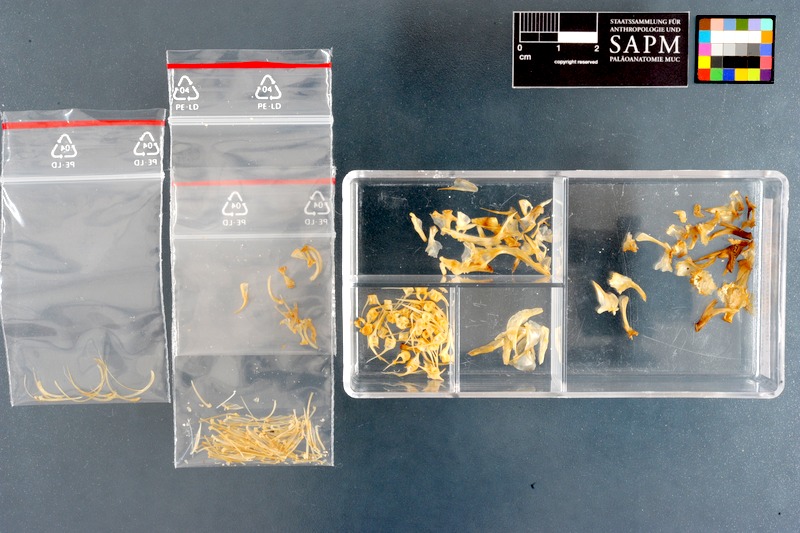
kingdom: Animalia
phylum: Chordata
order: Perciformes
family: Labrisomidae
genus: Labrisomus
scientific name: Labrisomus nuchipinnis
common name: Hairy blenny
